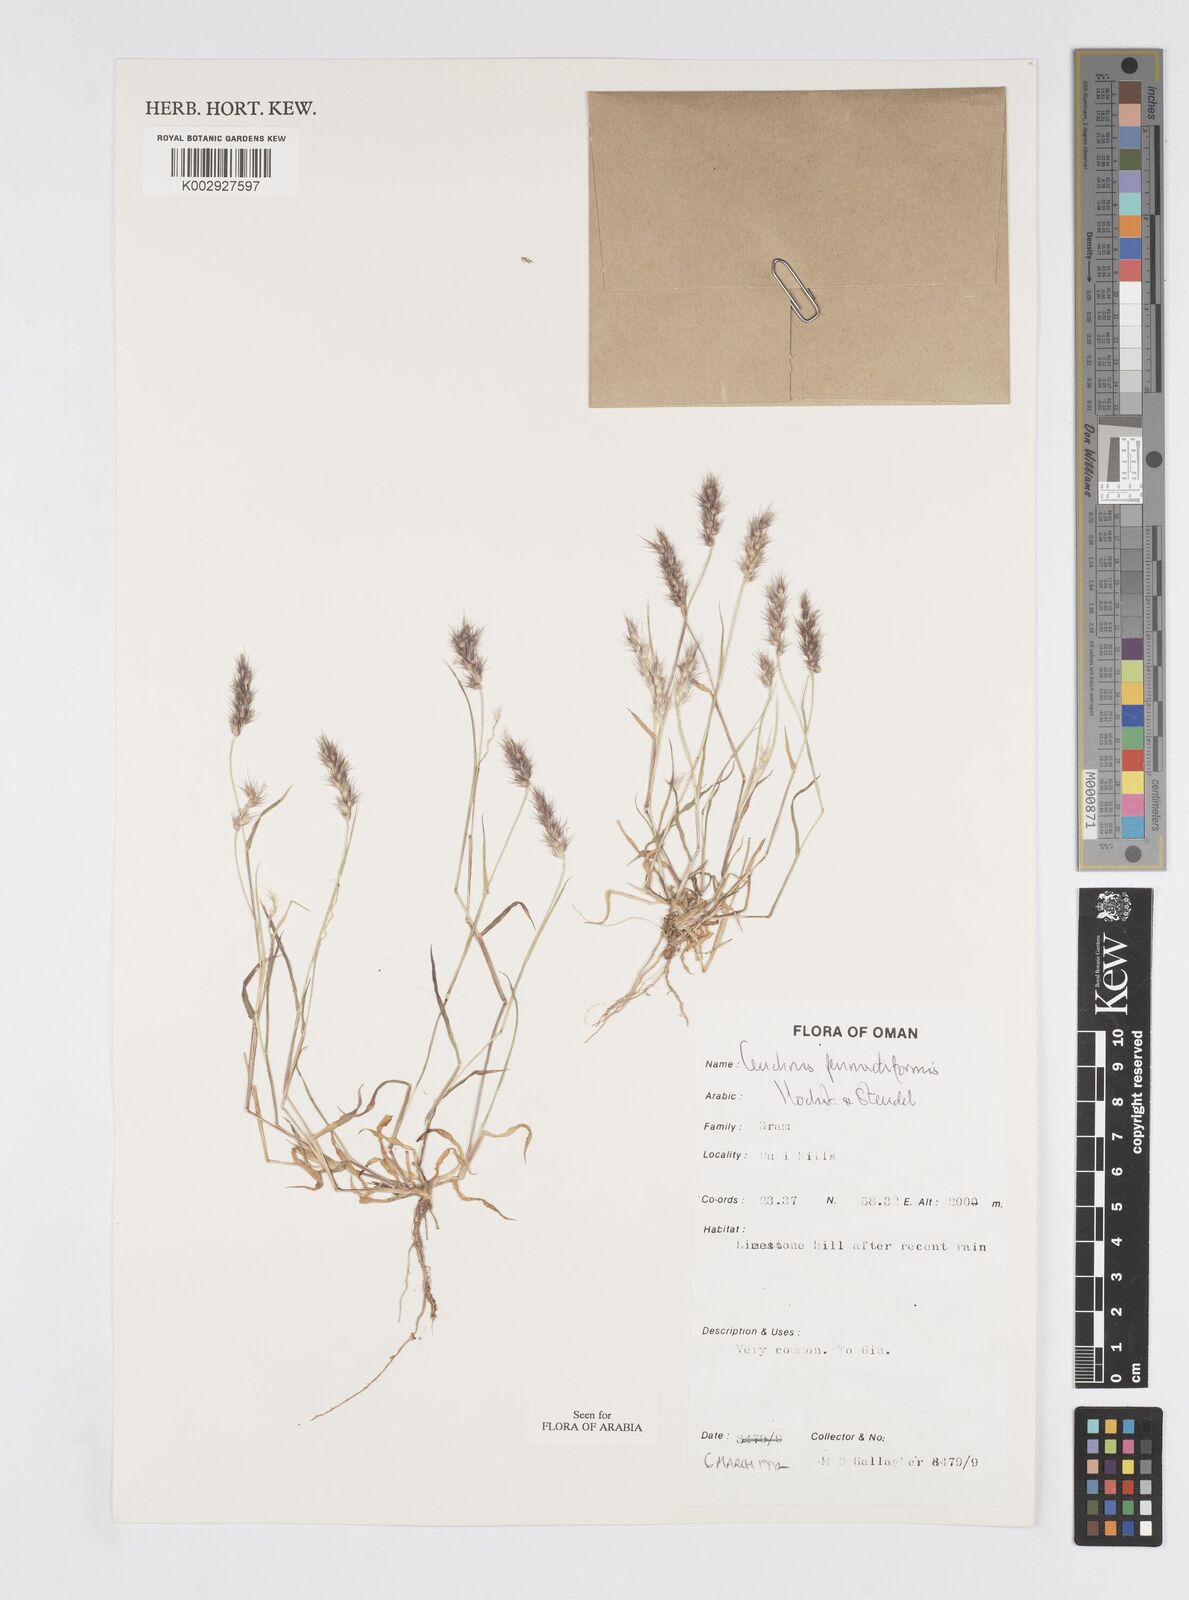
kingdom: Plantae
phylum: Tracheophyta
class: Liliopsida
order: Poales
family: Poaceae
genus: Cenchrus
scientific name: Cenchrus pennisetiformis
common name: Cloncurry
